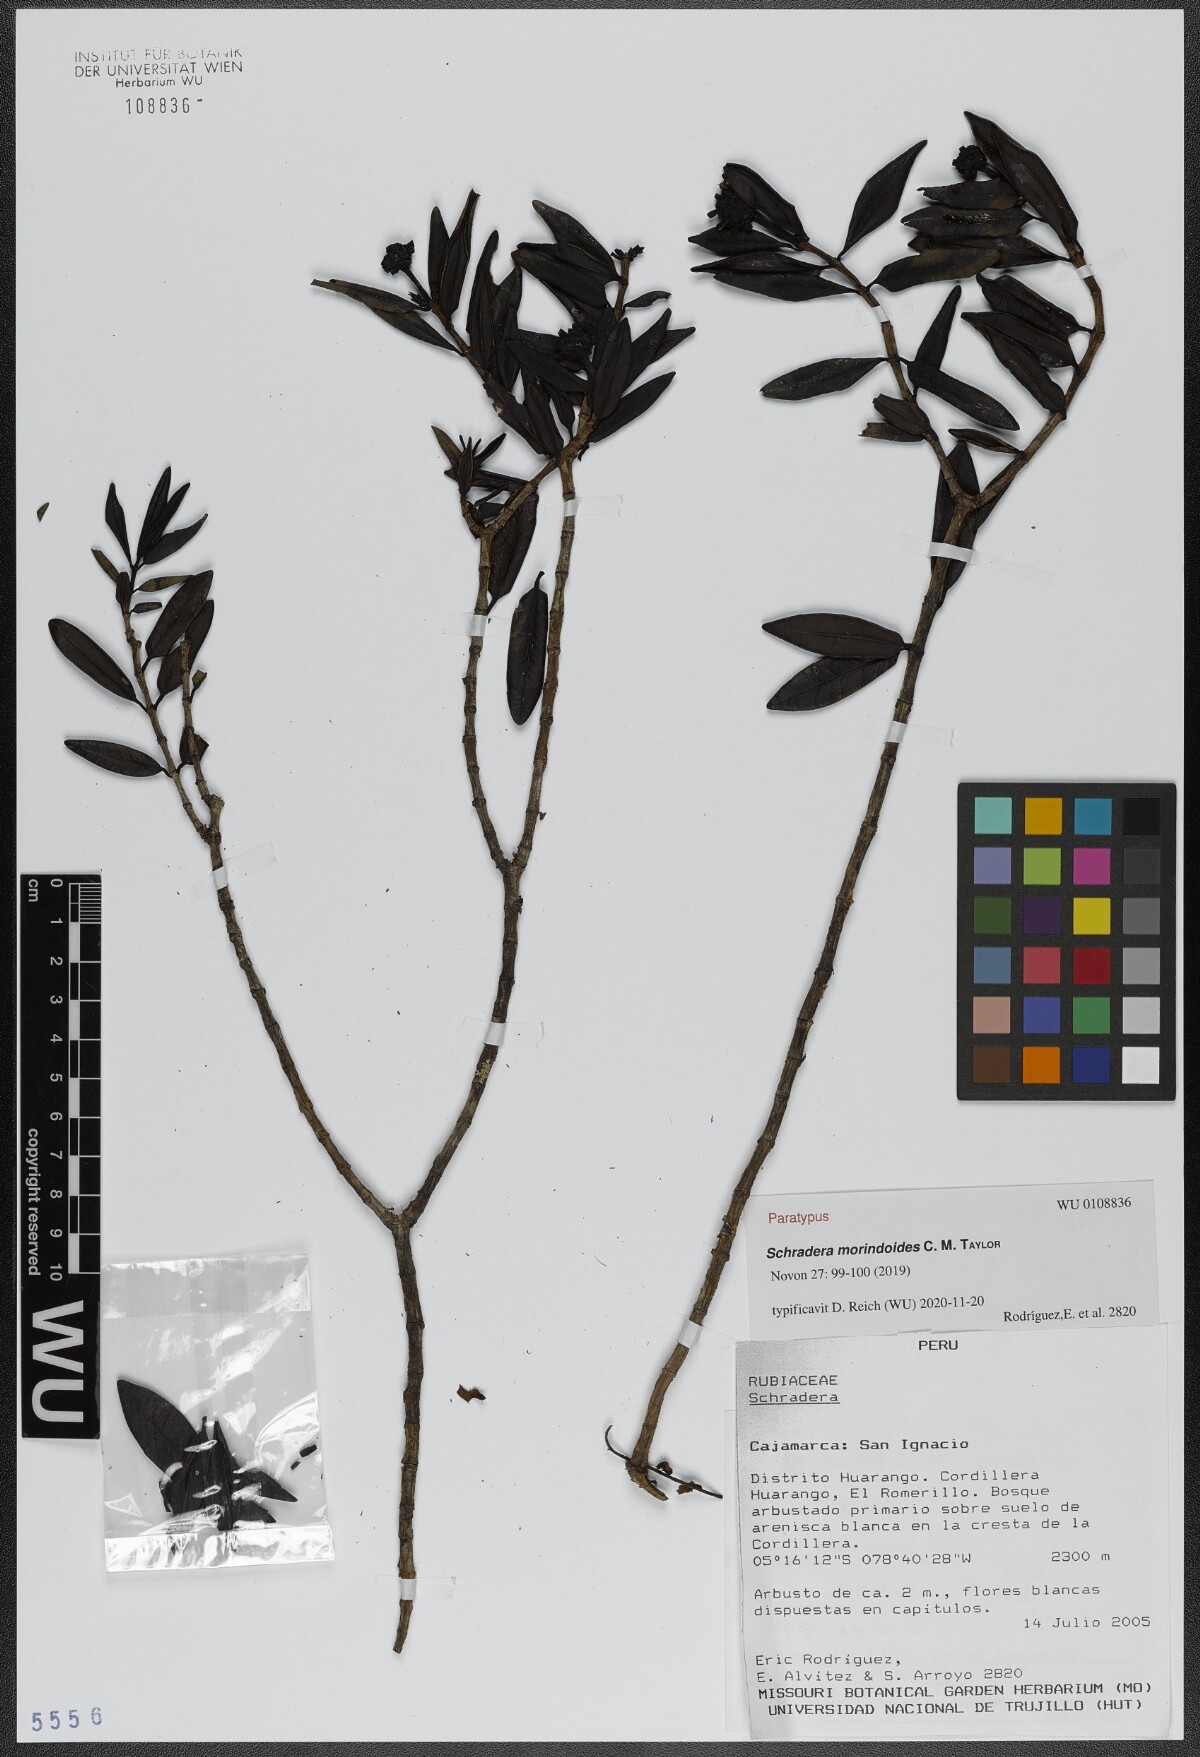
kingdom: Plantae
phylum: Tracheophyta
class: Magnoliopsida
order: Gentianales
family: Rubiaceae
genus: Schradera
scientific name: Schradera morindoides
